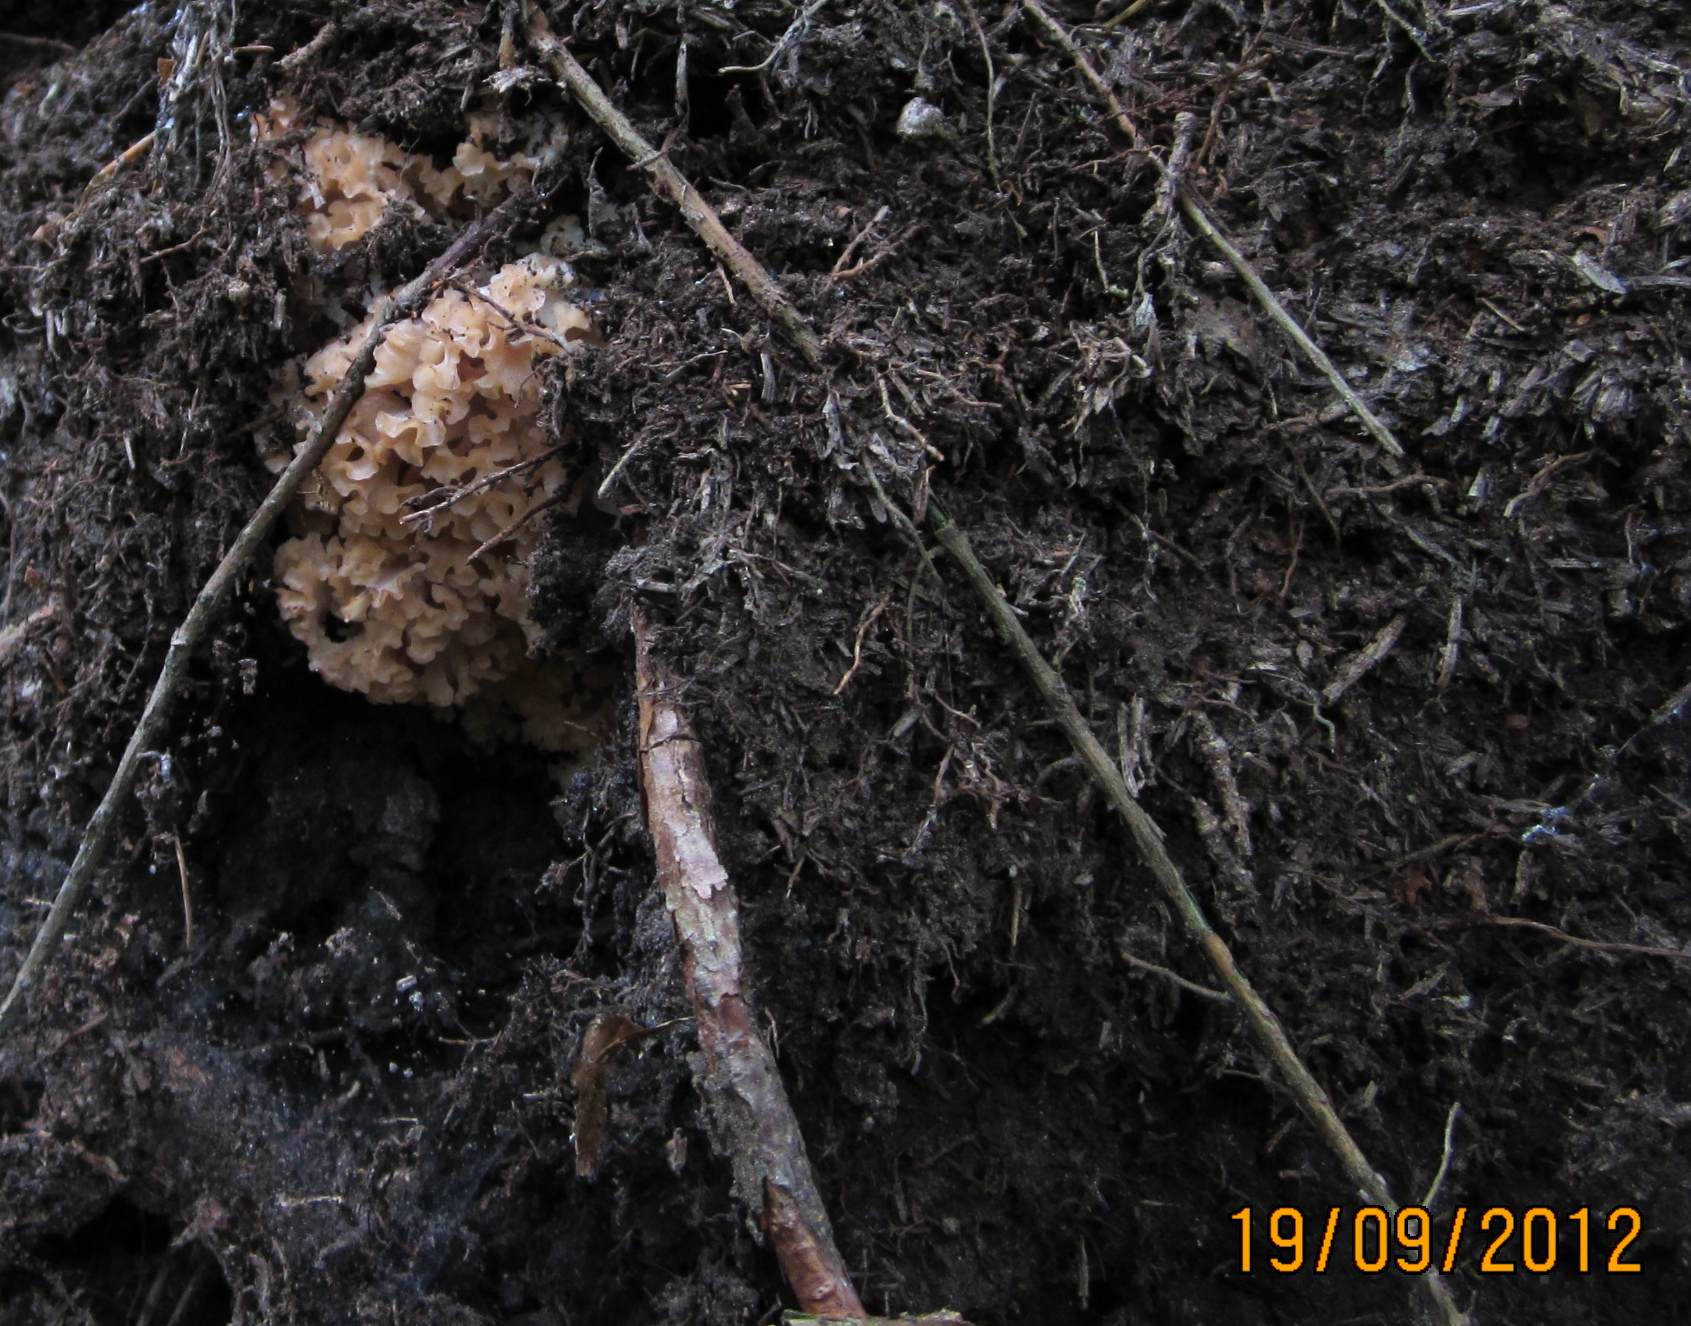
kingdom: Fungi
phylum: Basidiomycota
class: Agaricomycetes
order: Polyporales
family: Sparassidaceae
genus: Sparassis
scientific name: Sparassis crispa
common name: kruset blomkålssvamp
